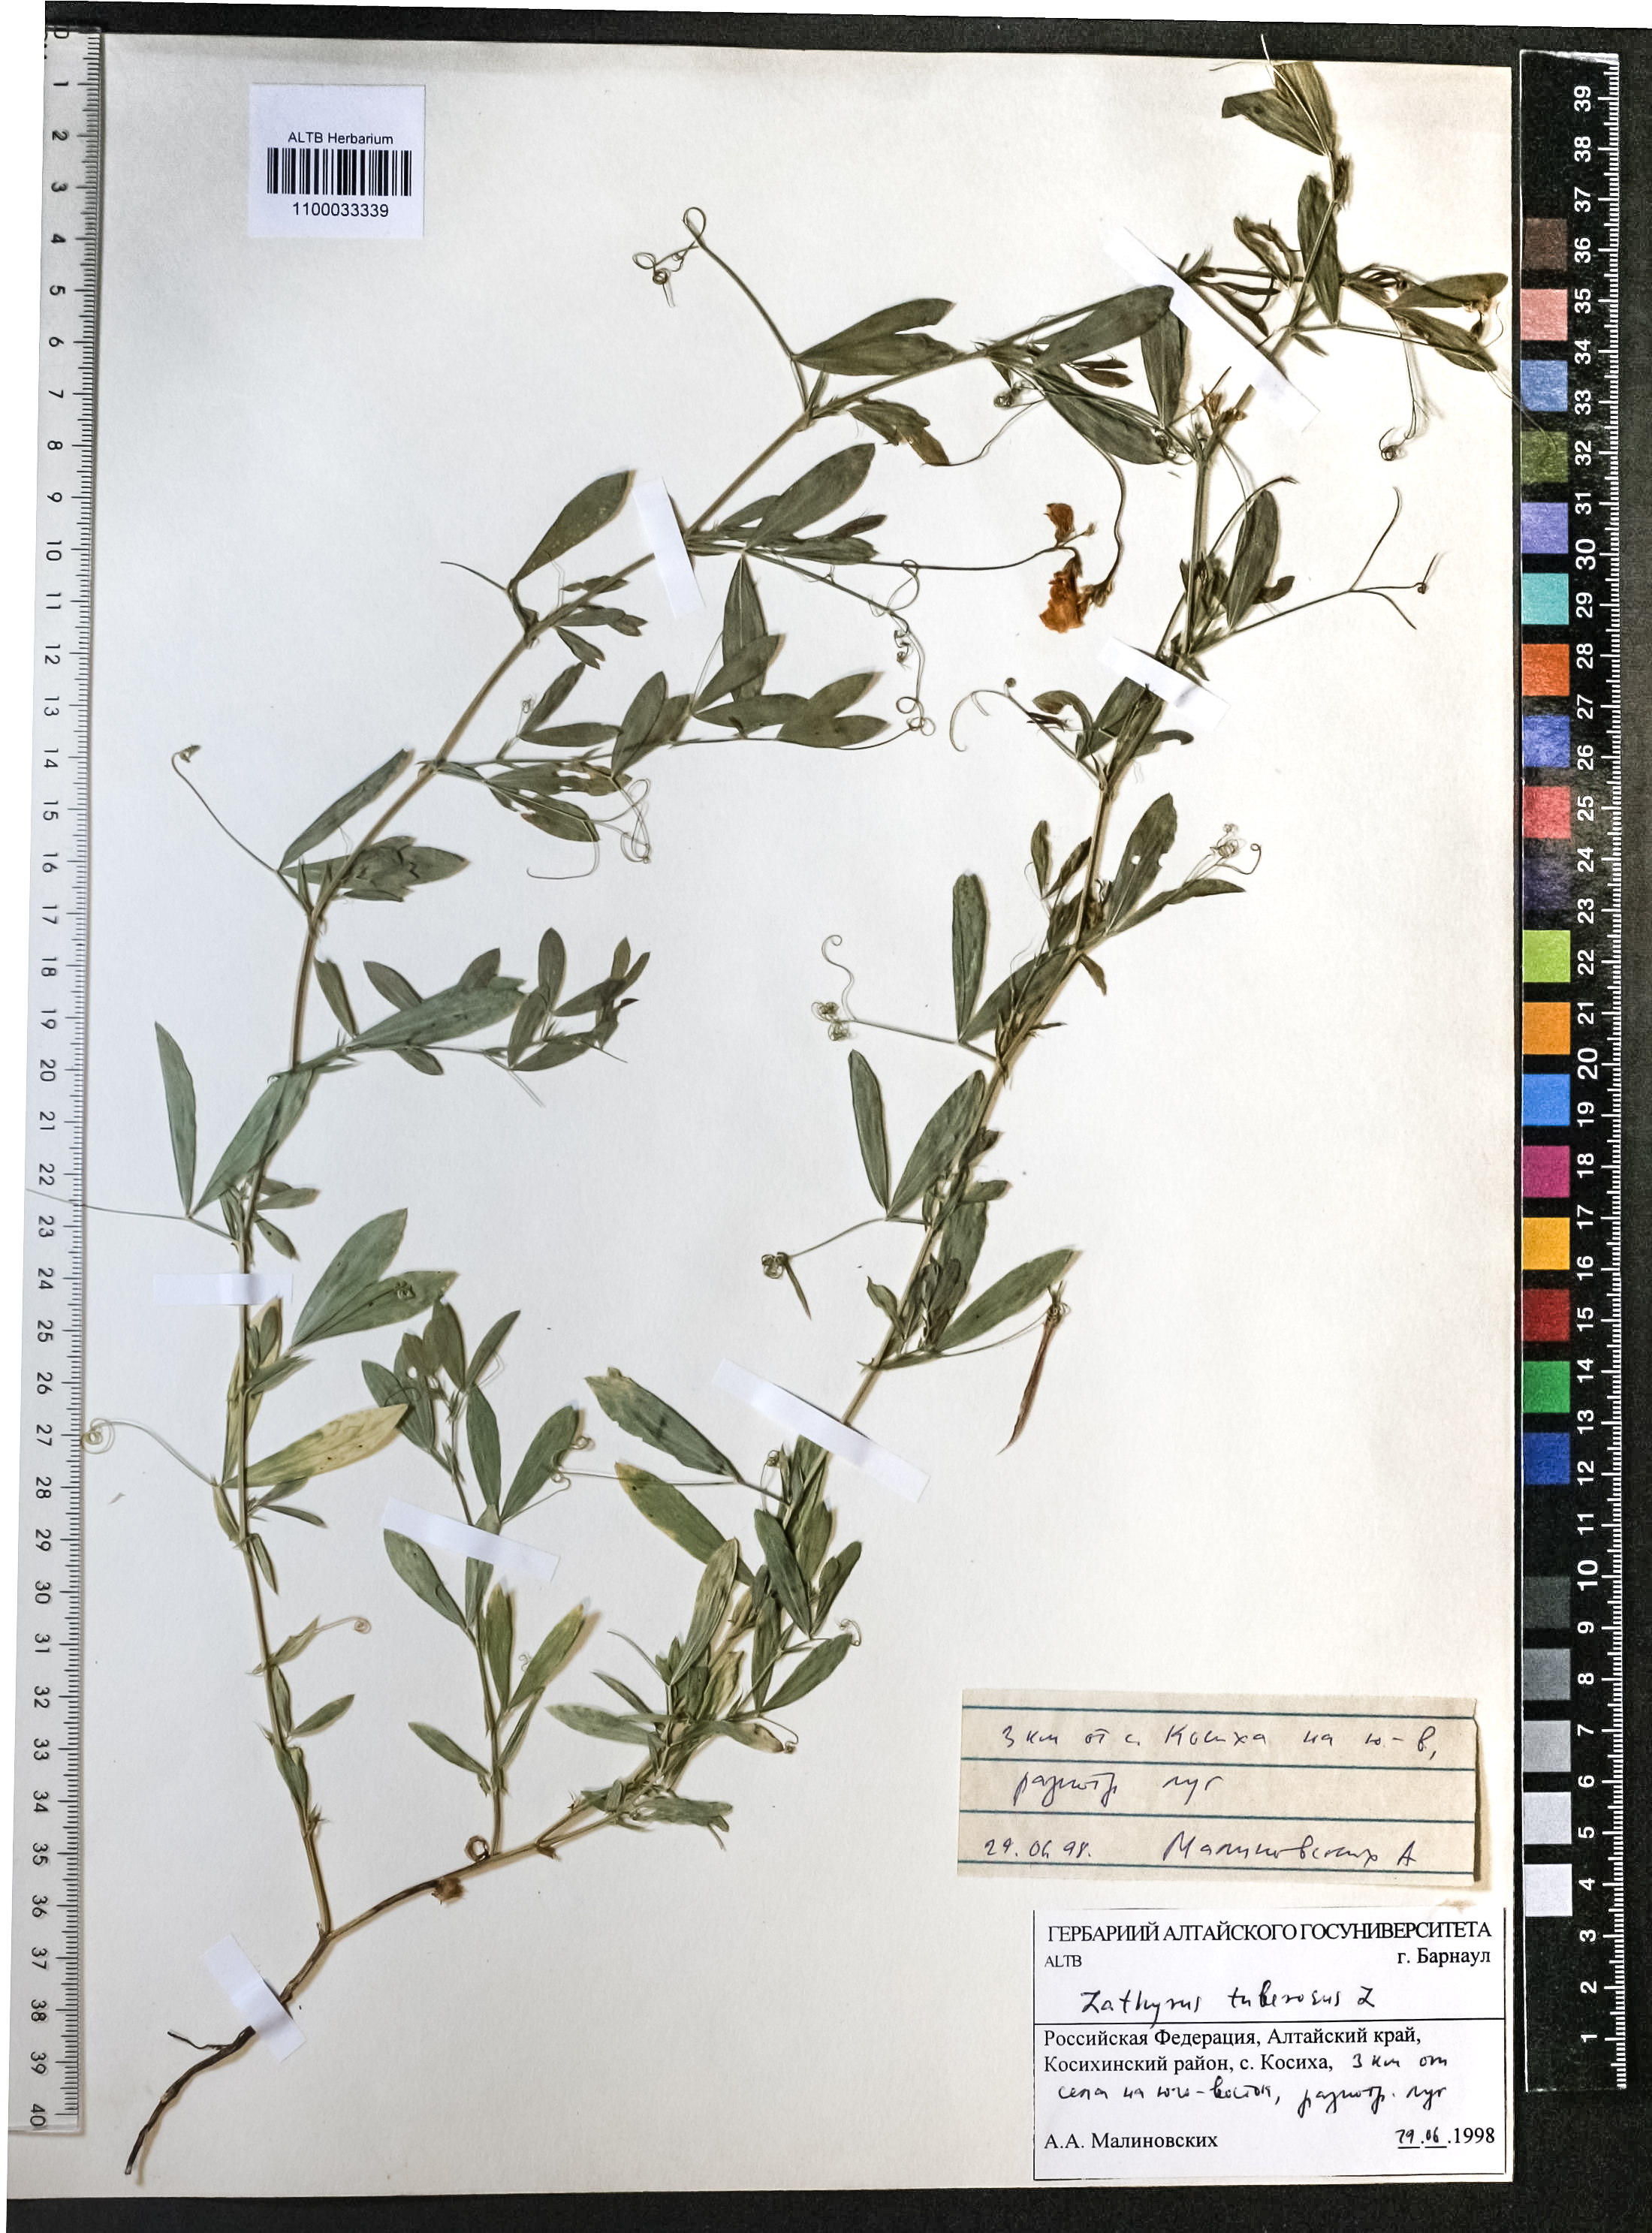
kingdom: Plantae
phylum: Tracheophyta
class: Magnoliopsida
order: Fabales
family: Fabaceae
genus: Lathyrus
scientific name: Lathyrus tuberosus
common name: Tuberous pea
